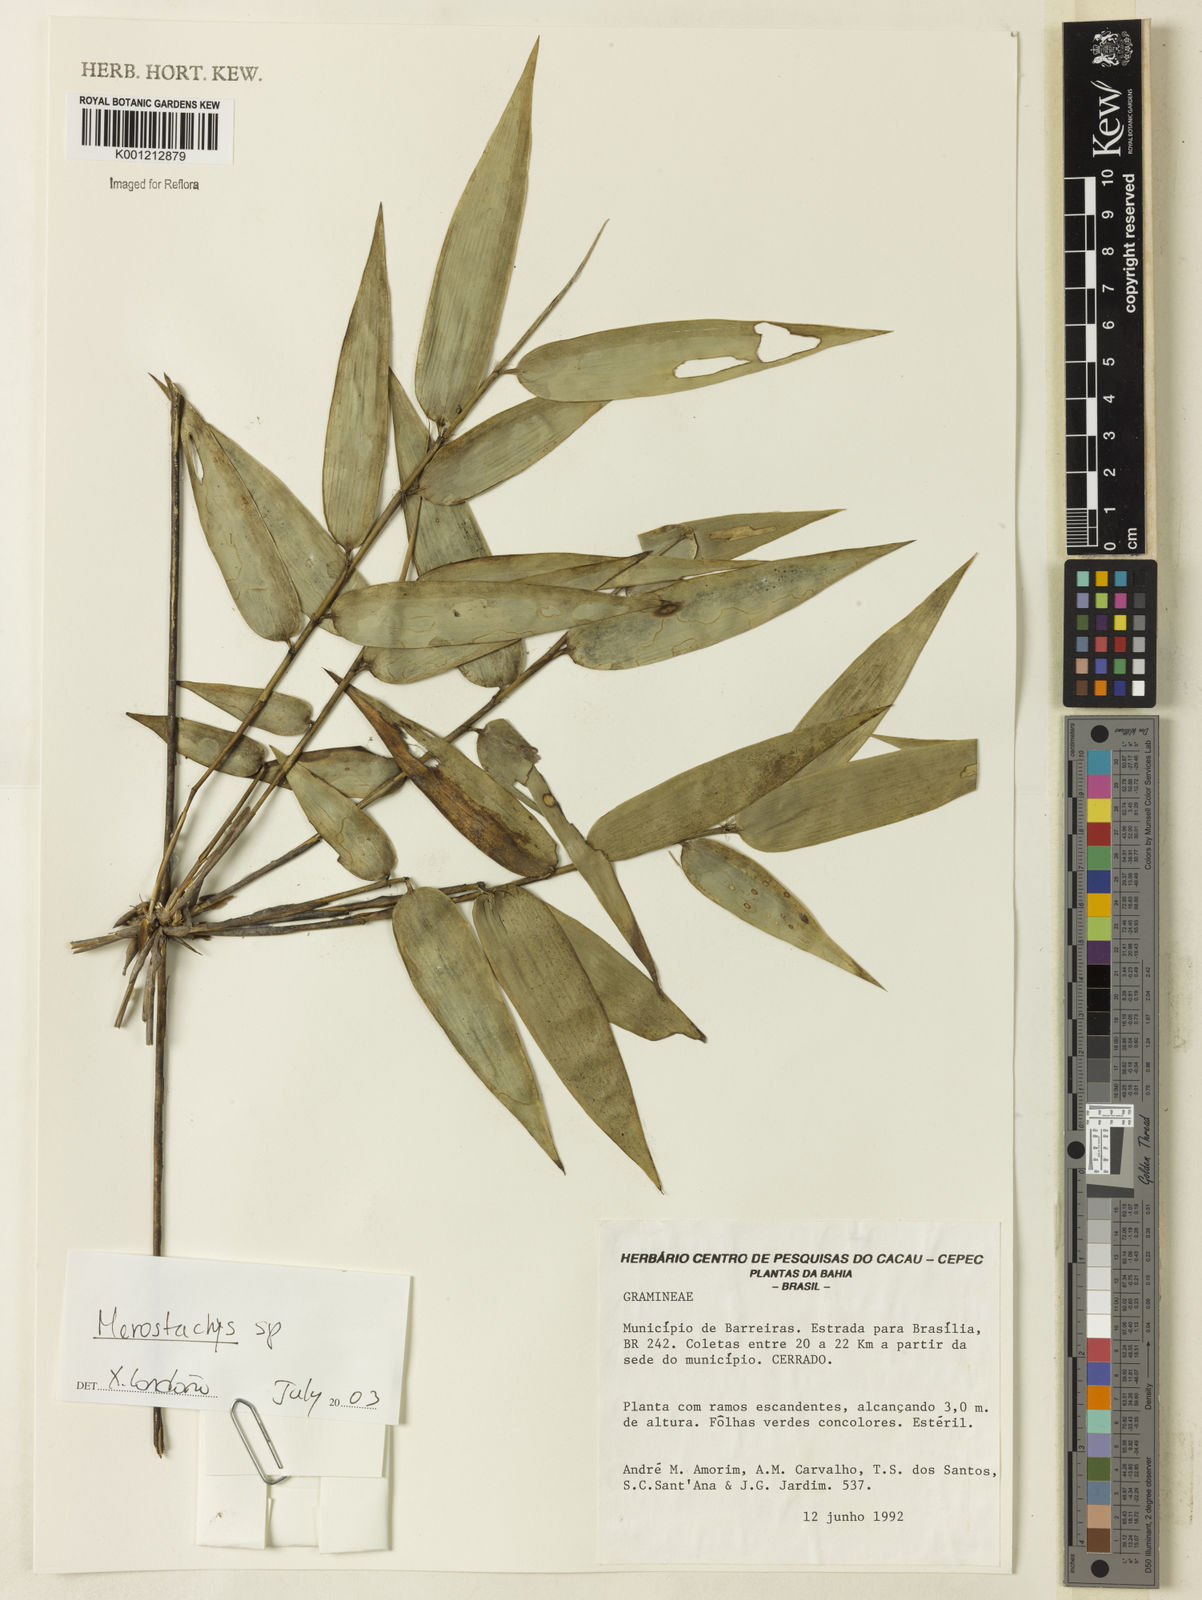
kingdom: Plantae
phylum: Tracheophyta
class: Liliopsida
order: Poales
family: Poaceae
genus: Merostachys
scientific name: Merostachys
